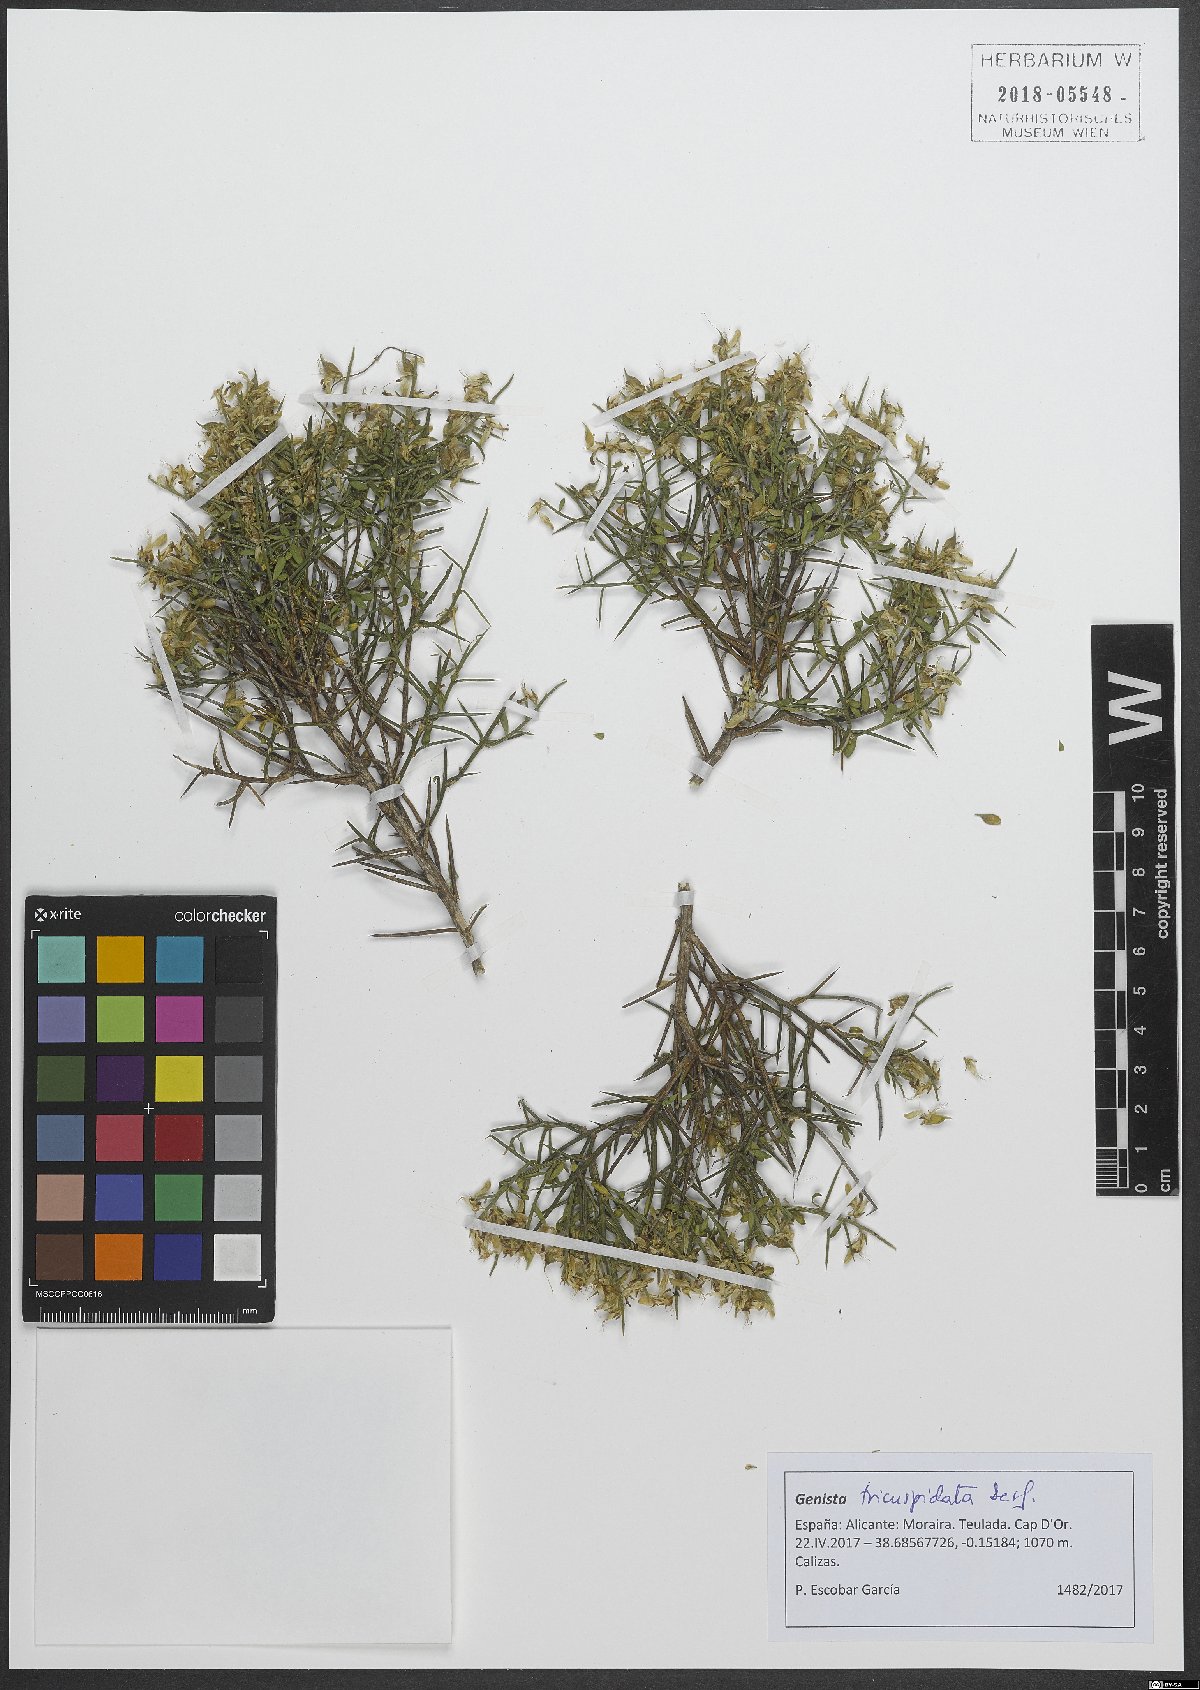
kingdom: Plantae
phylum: Tracheophyta
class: Magnoliopsida
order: Fabales
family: Fabaceae
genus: Genista
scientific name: Genista tricuspidata
